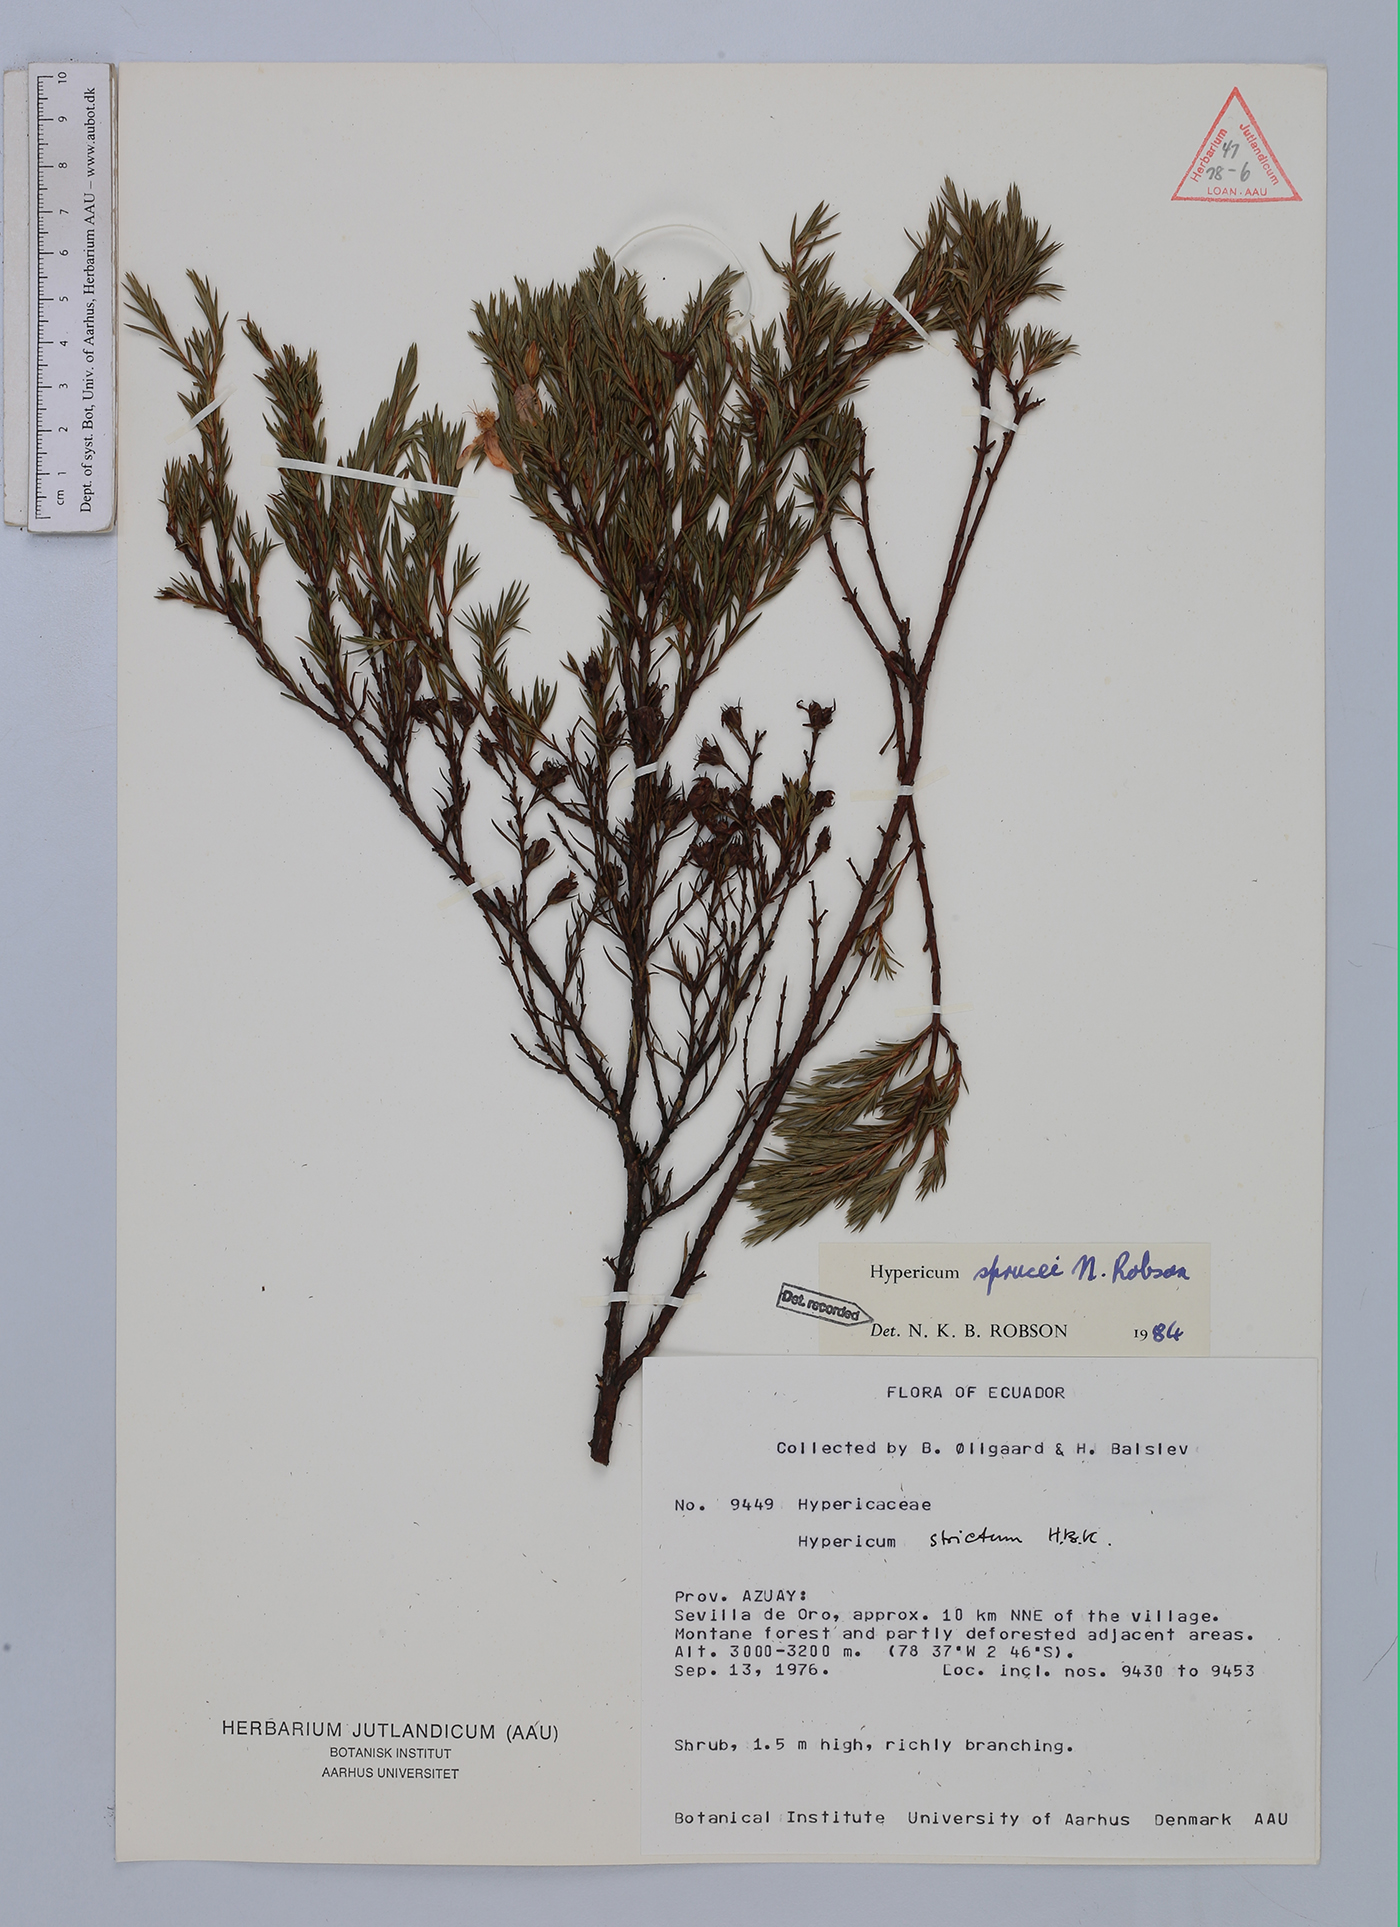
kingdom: Plantae
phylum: Tracheophyta
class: Magnoliopsida
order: Malpighiales
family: Hypericaceae
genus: Hypericum
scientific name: Hypericum sprucei
